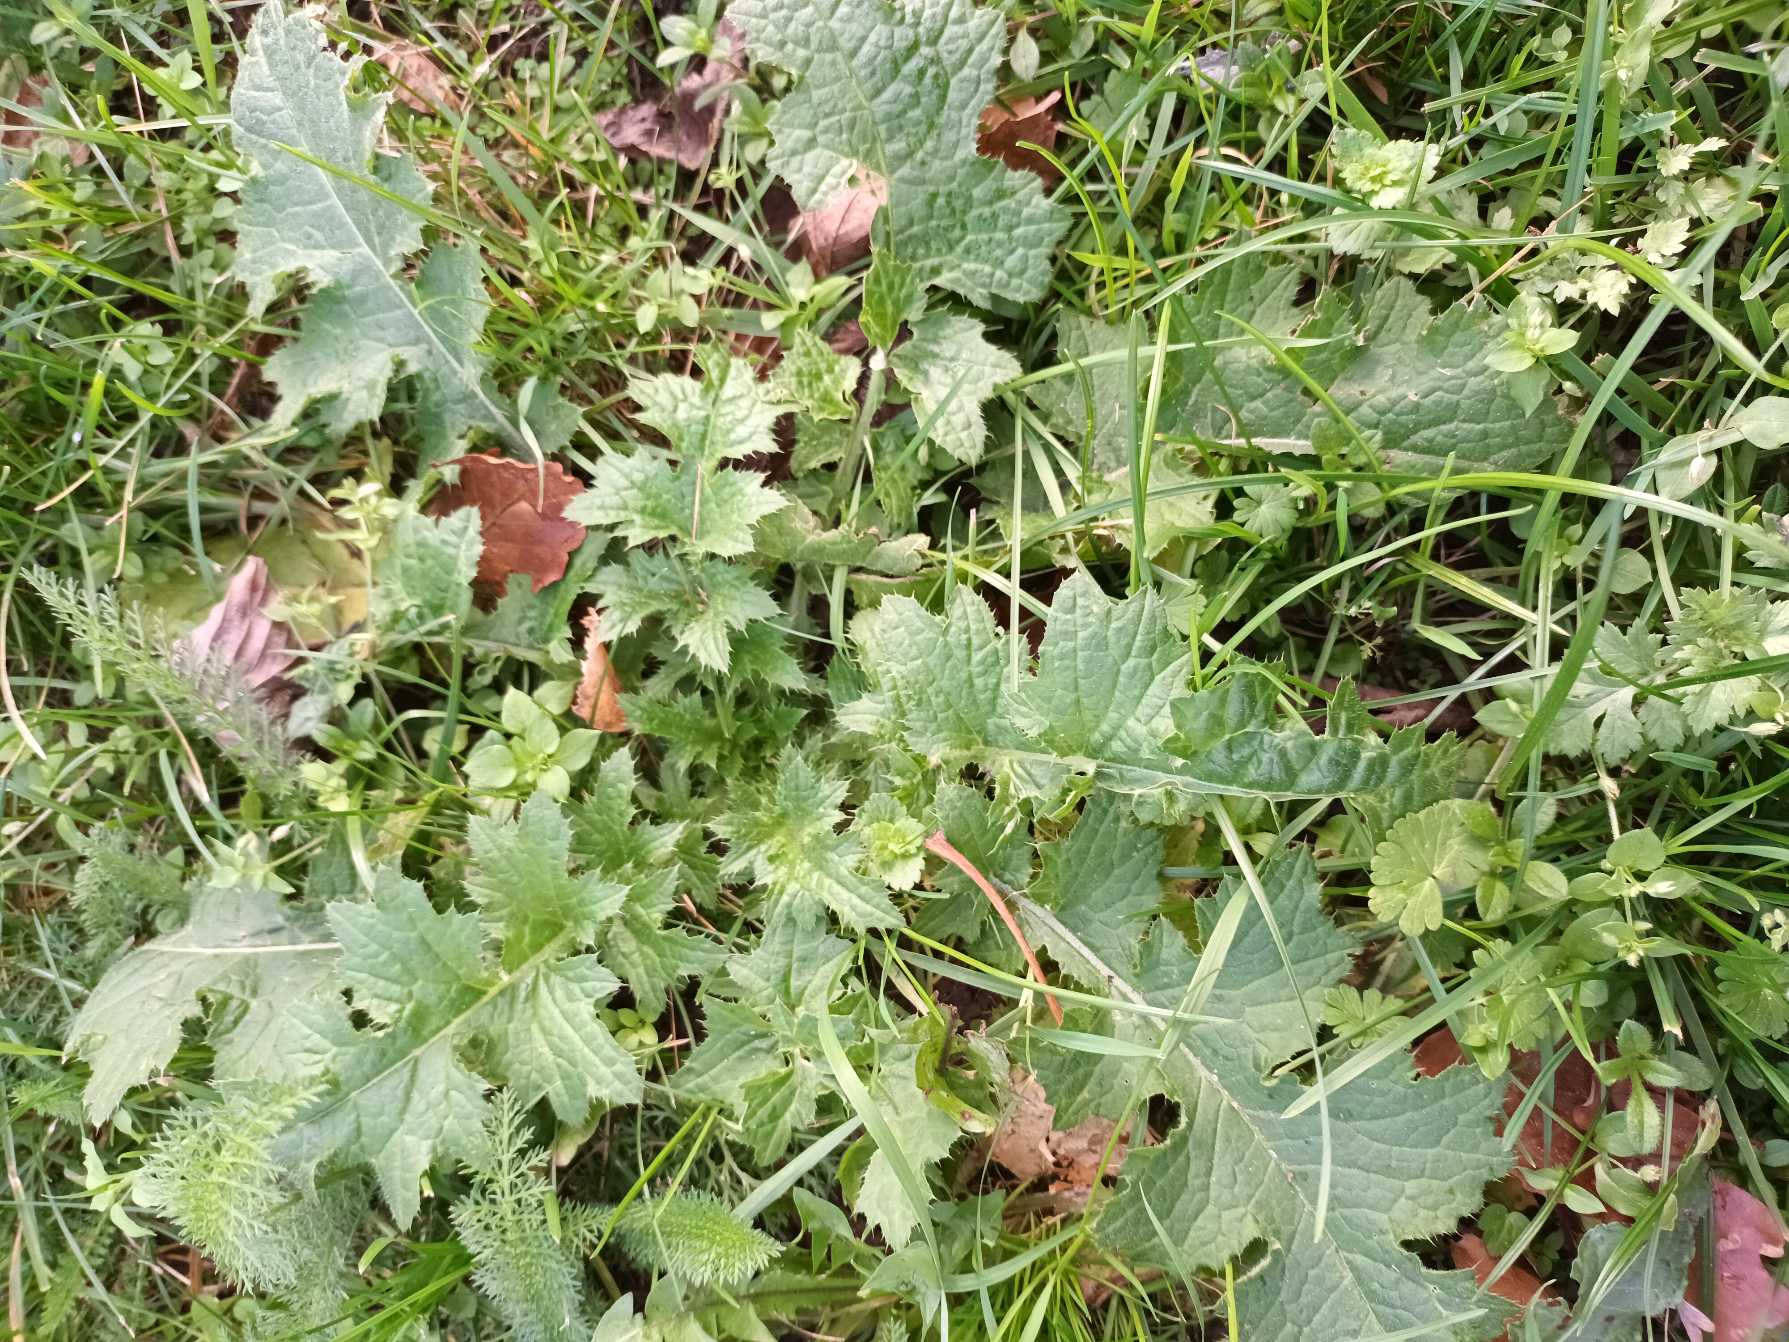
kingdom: Plantae
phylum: Tracheophyta
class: Magnoliopsida
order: Asterales
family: Asteraceae
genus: Carduus
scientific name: Carduus crispus
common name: Kruset tidsel
